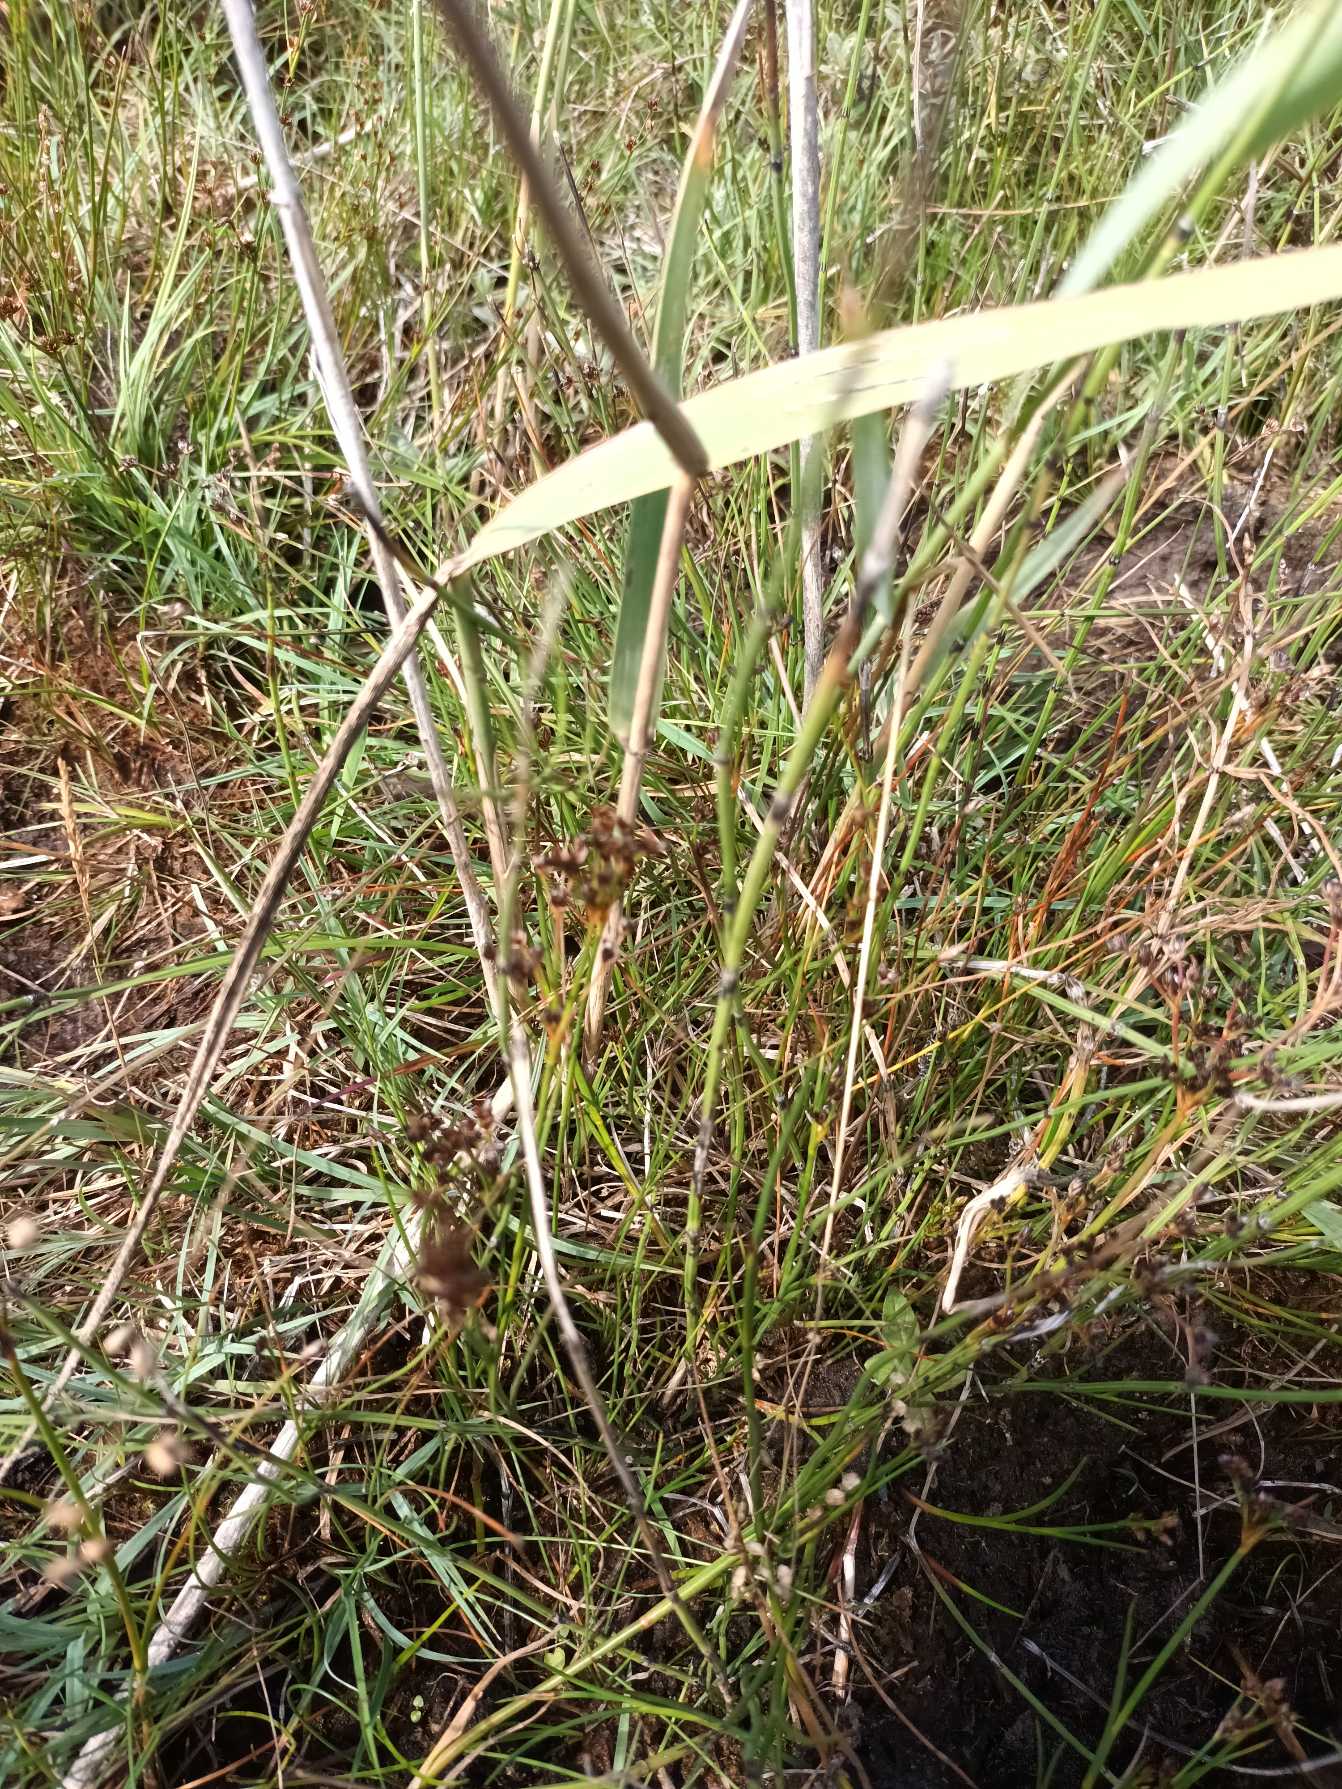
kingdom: Plantae
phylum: Tracheophyta
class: Polypodiopsida
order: Equisetales
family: Equisetaceae
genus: Equisetum
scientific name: Equisetum variegatum
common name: Liden padderok
